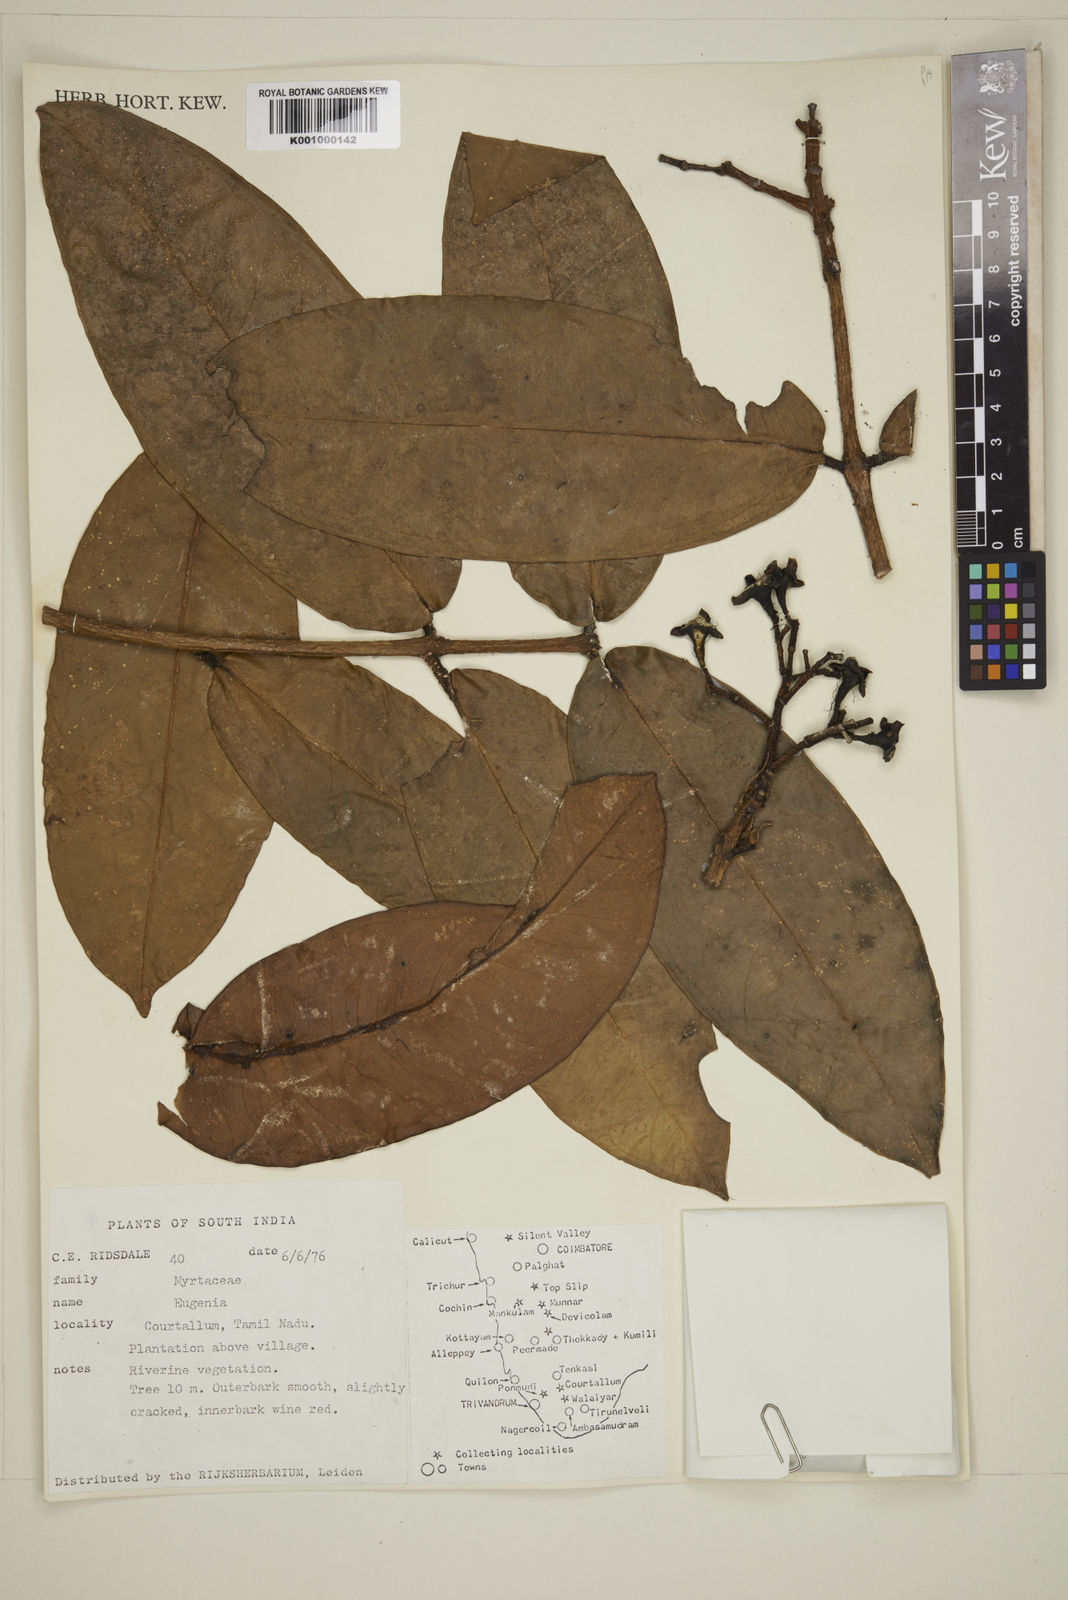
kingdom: Plantae
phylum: Tracheophyta
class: Magnoliopsida
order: Myrtales
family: Myrtaceae
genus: Eugenia
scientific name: Eugenia
